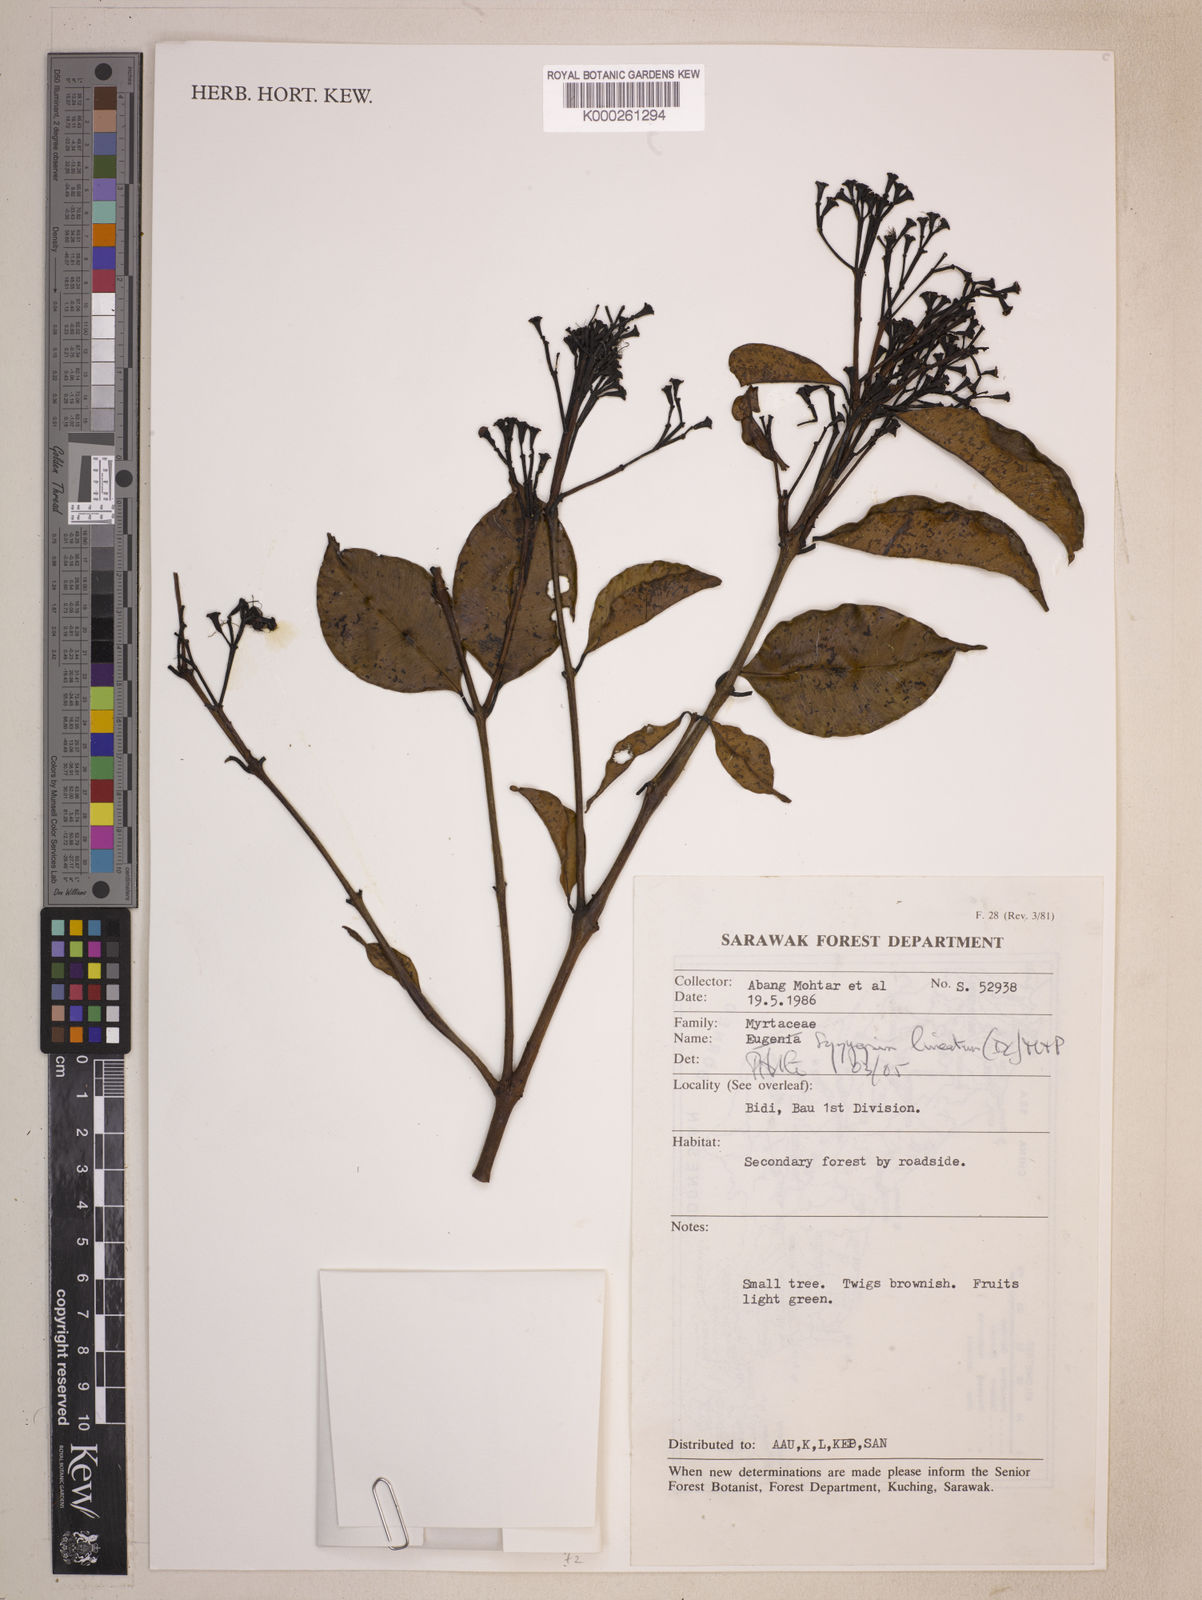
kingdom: Plantae
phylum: Tracheophyta
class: Magnoliopsida
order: Myrtales
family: Myrtaceae
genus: Syzygium
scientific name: Syzygium lineatum
